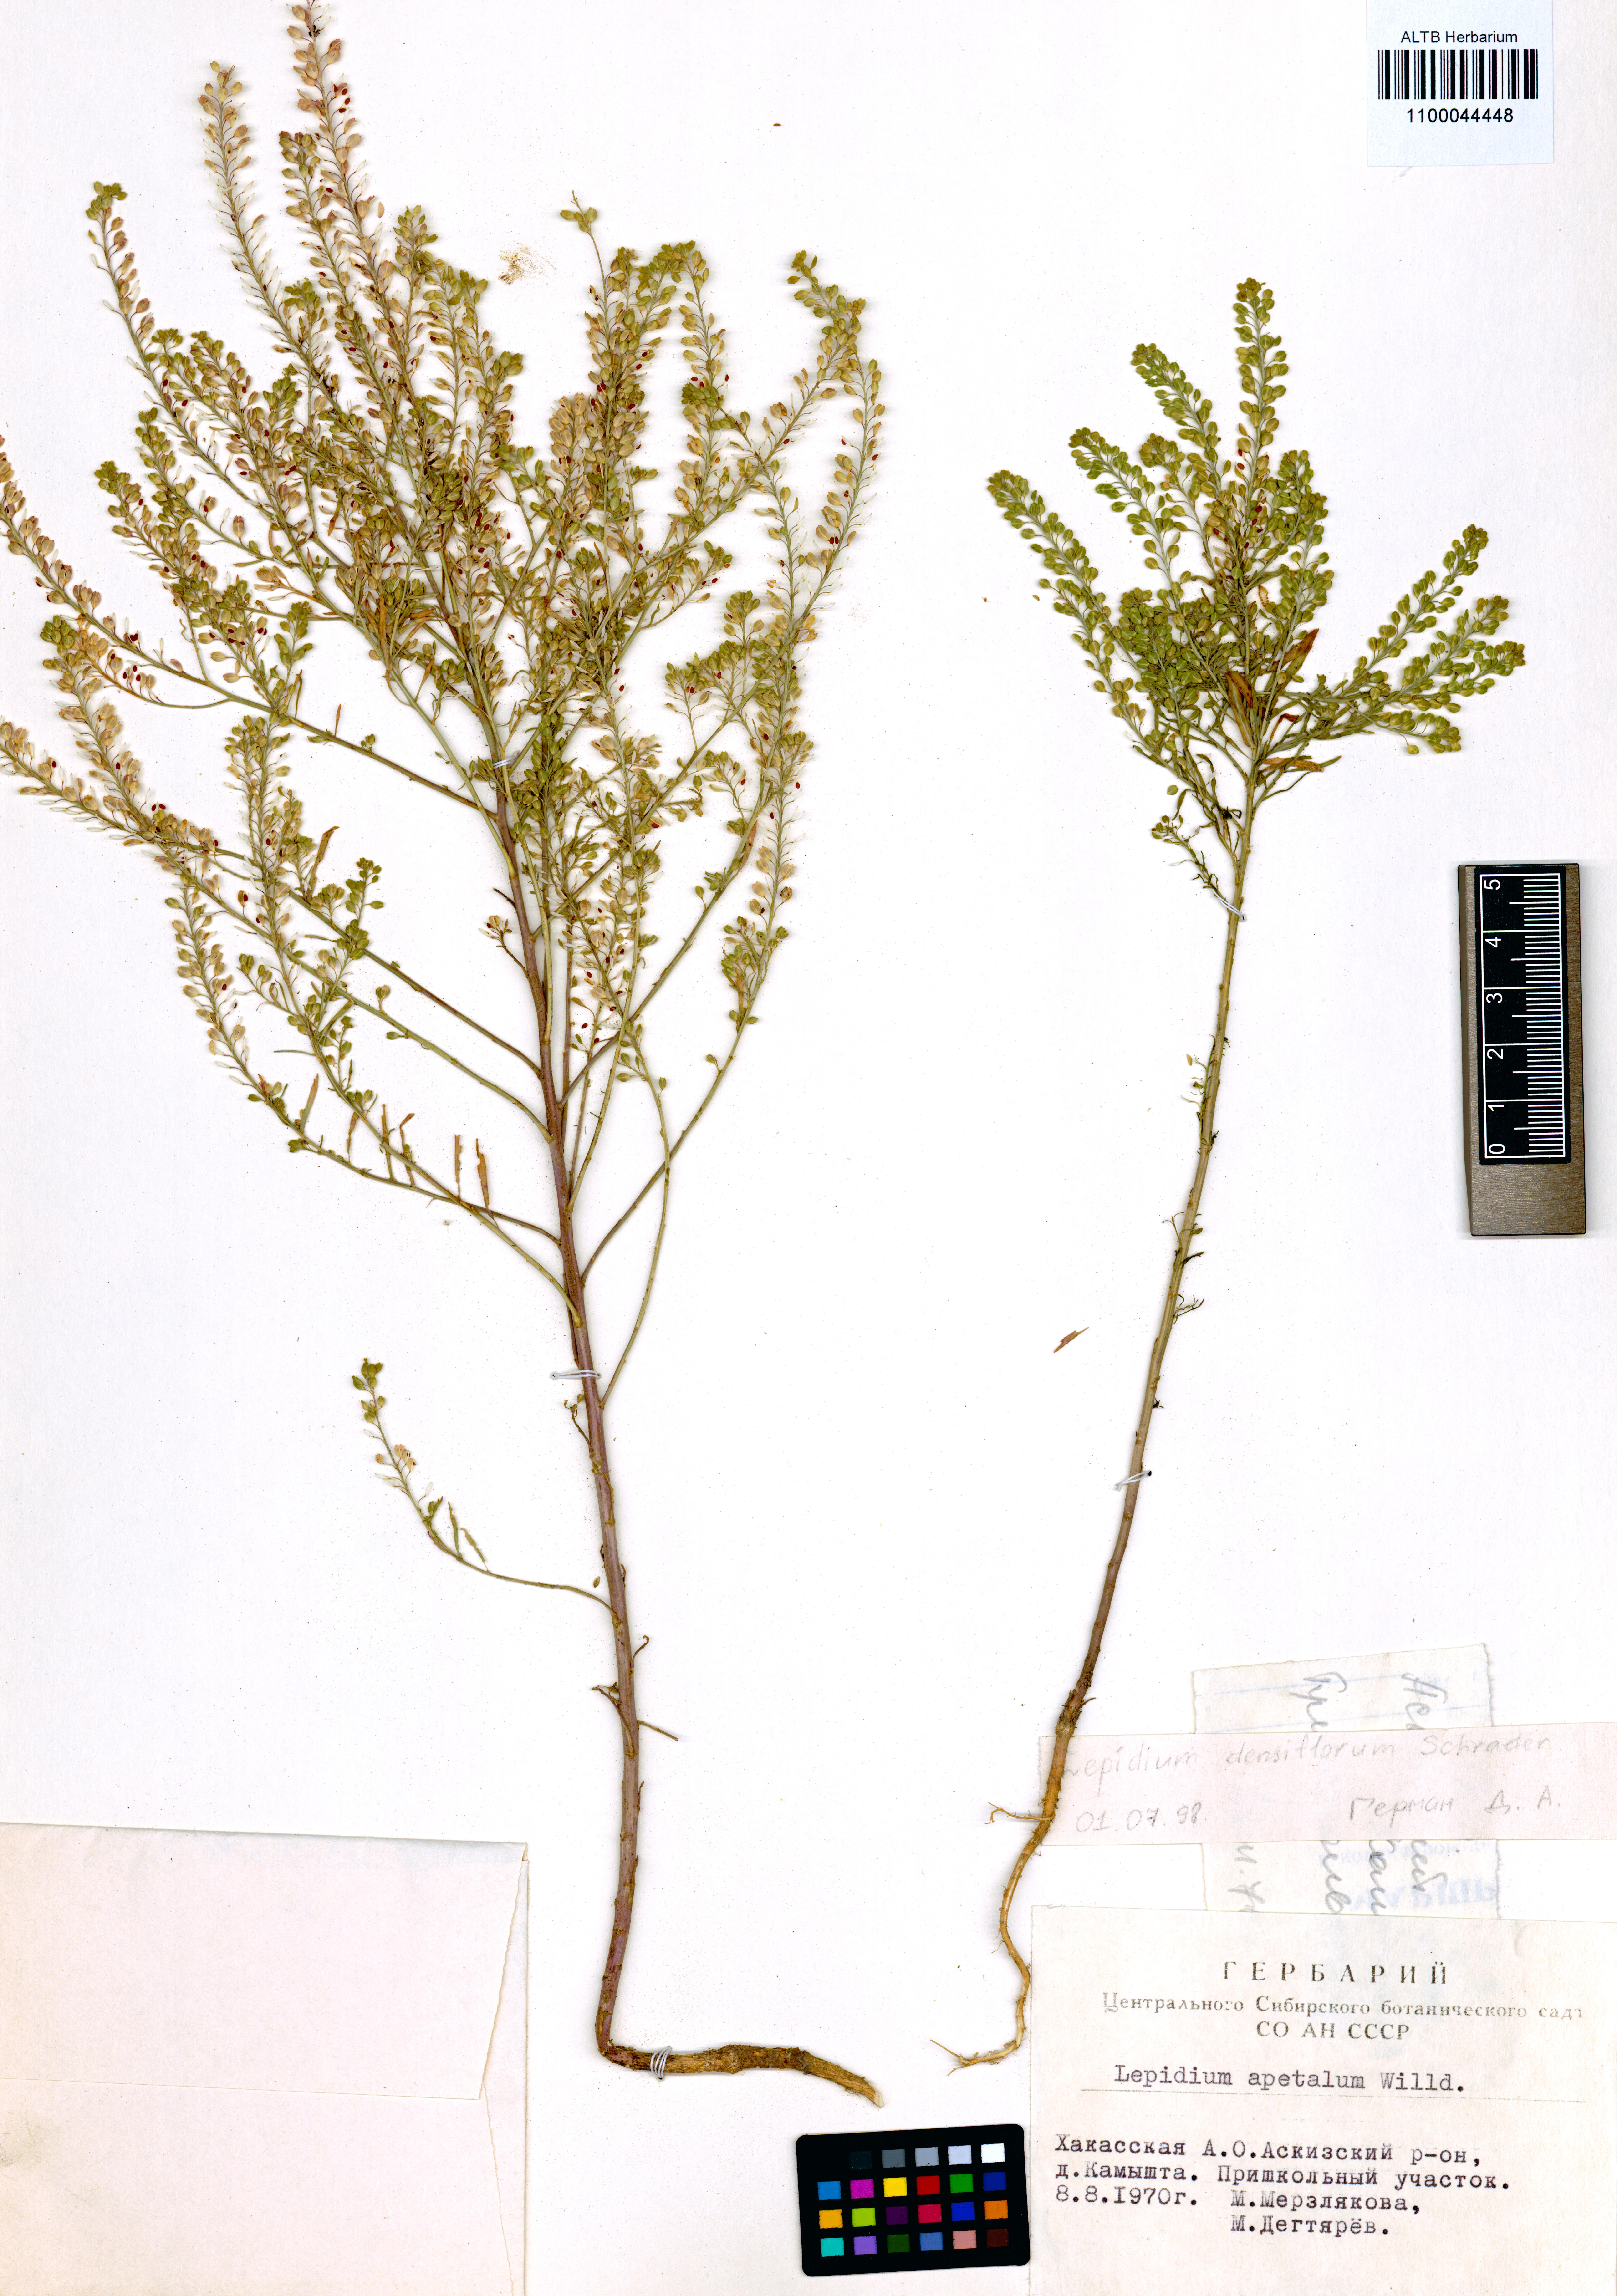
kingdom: Plantae
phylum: Tracheophyta
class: Magnoliopsida
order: Brassicales
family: Brassicaceae
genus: Lepidium
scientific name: Lepidium densiflorum
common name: Miner's pepperwort
